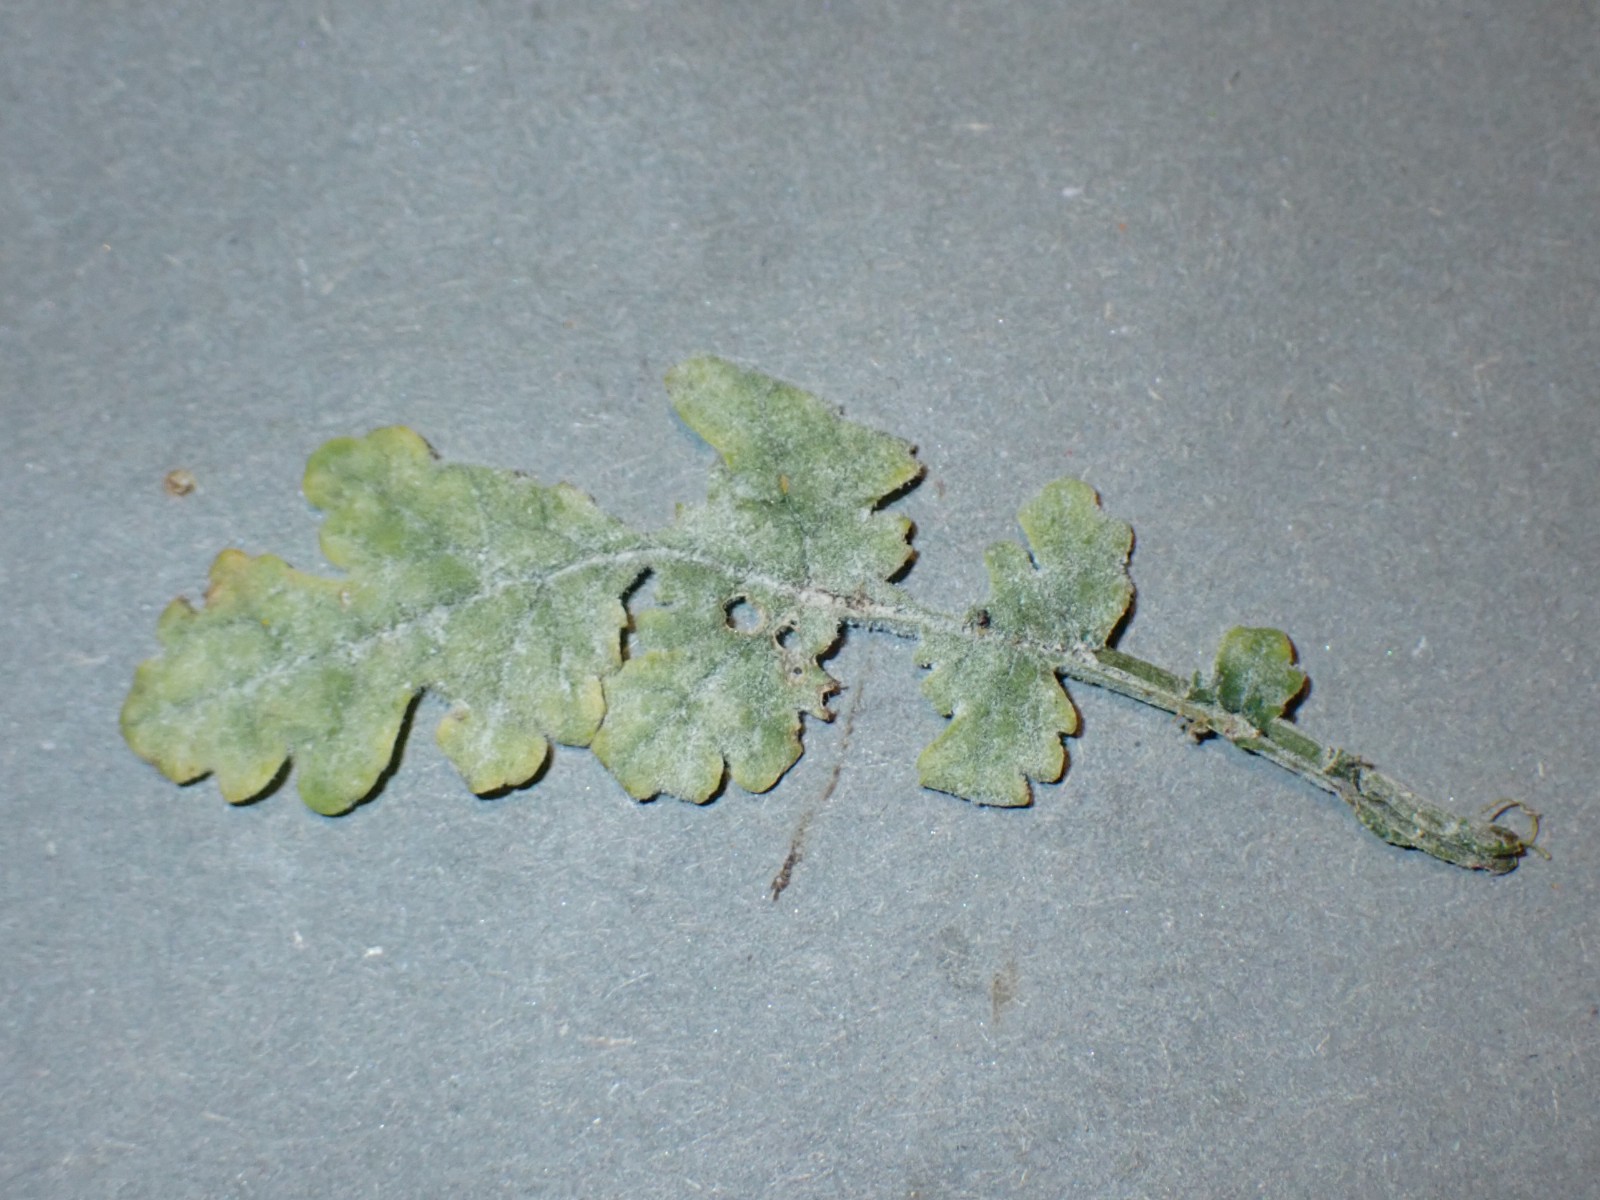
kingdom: Fungi
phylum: Ascomycota
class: Leotiomycetes
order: Helotiales
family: Erysiphaceae
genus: Podosphaera
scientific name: Podosphaera senecionis
